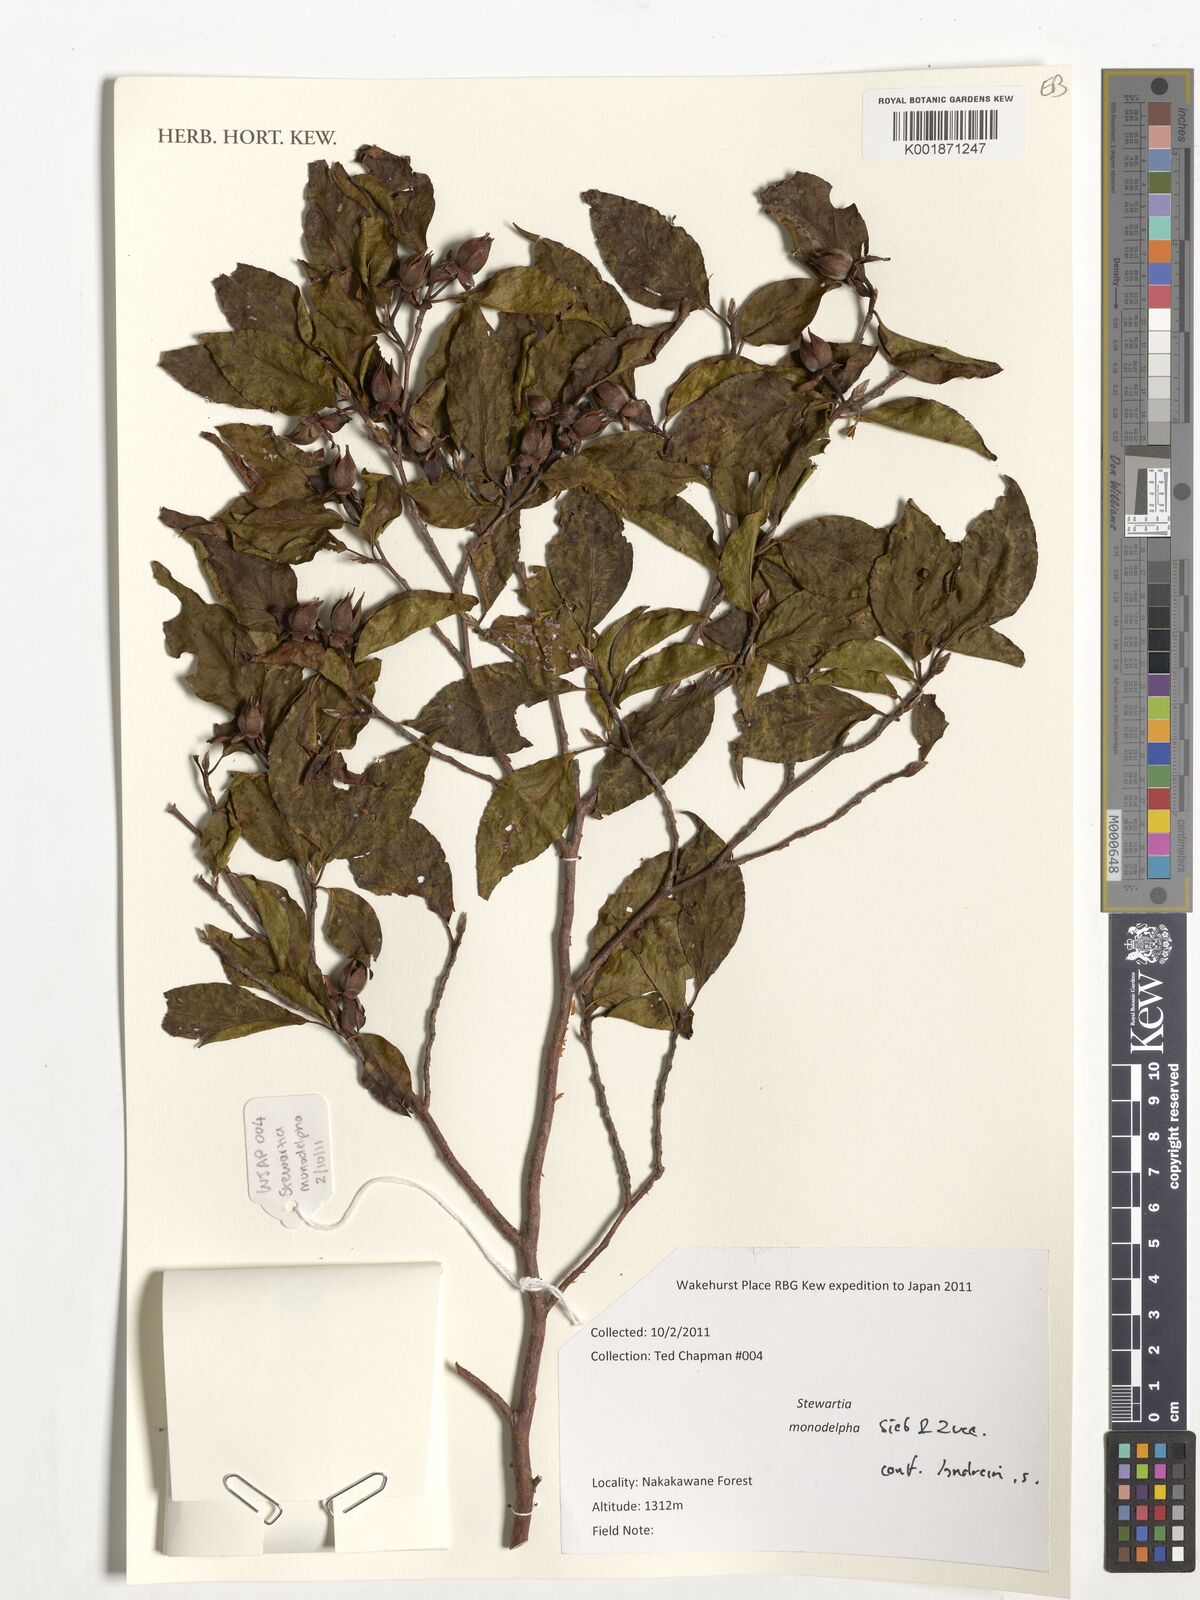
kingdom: Plantae
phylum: Tracheophyta
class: Magnoliopsida
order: Ericales
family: Theaceae
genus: Stewartia
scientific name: Stewartia
